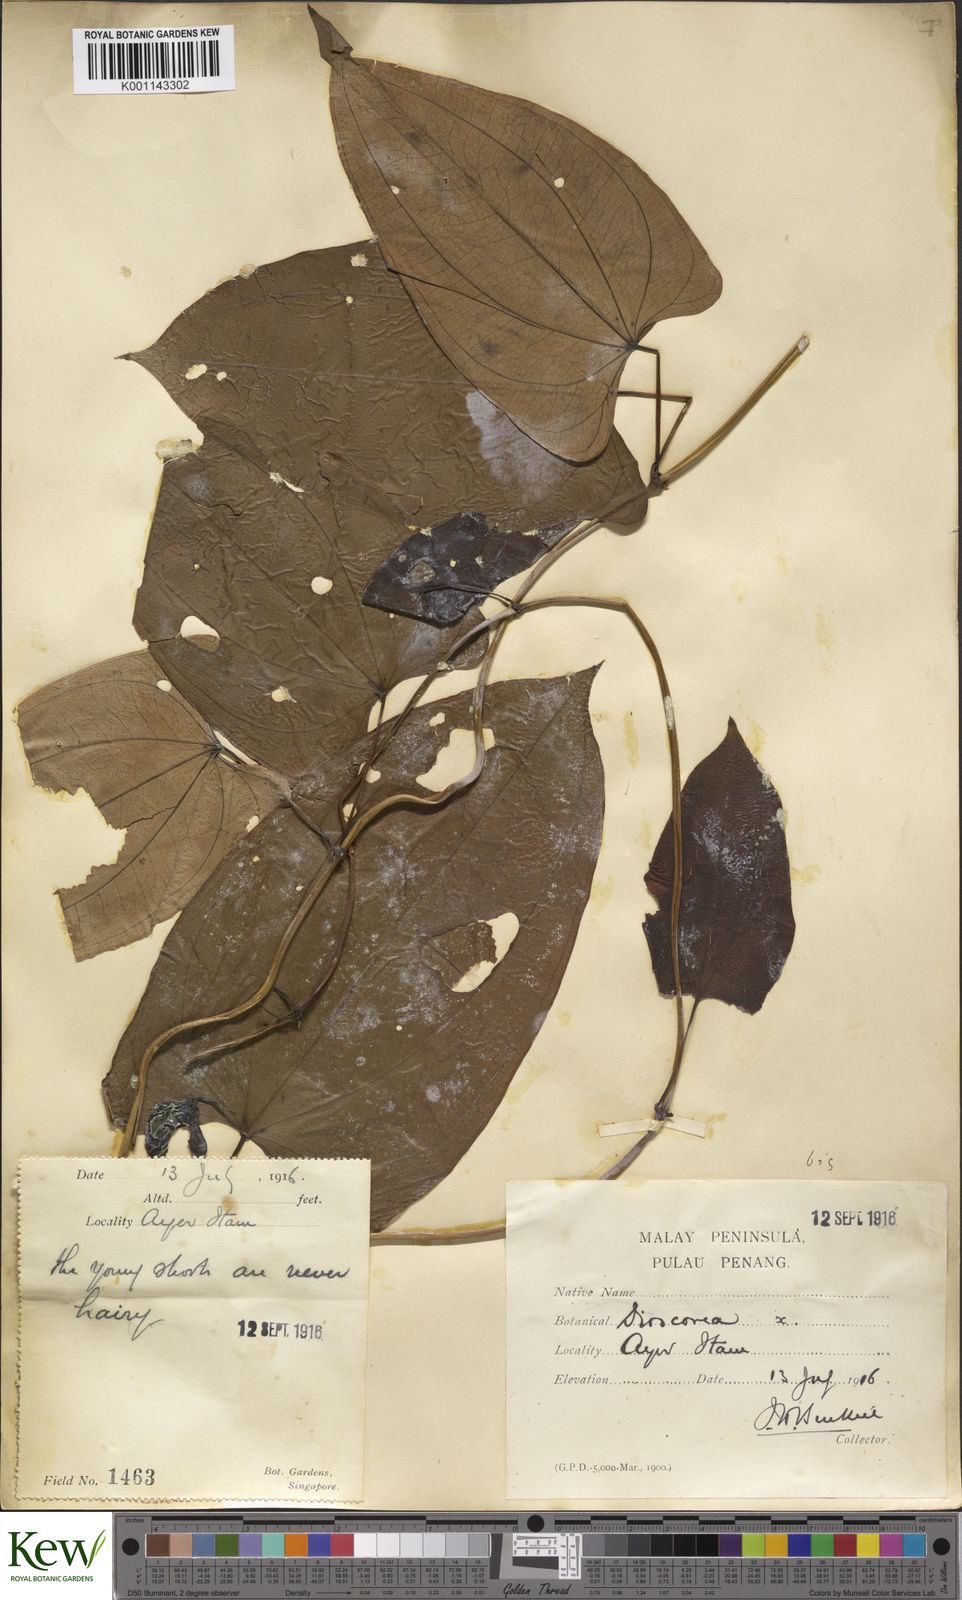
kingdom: Plantae
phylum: Tracheophyta
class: Liliopsida
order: Dioscoreales
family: Dioscoreaceae
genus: Dioscorea
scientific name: Dioscorea glabra
